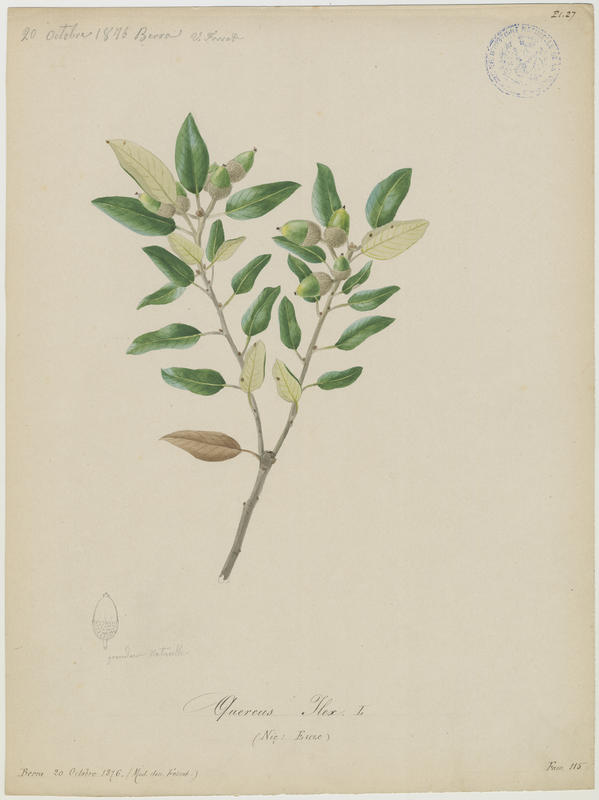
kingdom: Plantae
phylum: Tracheophyta
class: Magnoliopsida
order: Fagales
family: Fagaceae
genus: Quercus
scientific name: Quercus ilex
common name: Evergreen oak
